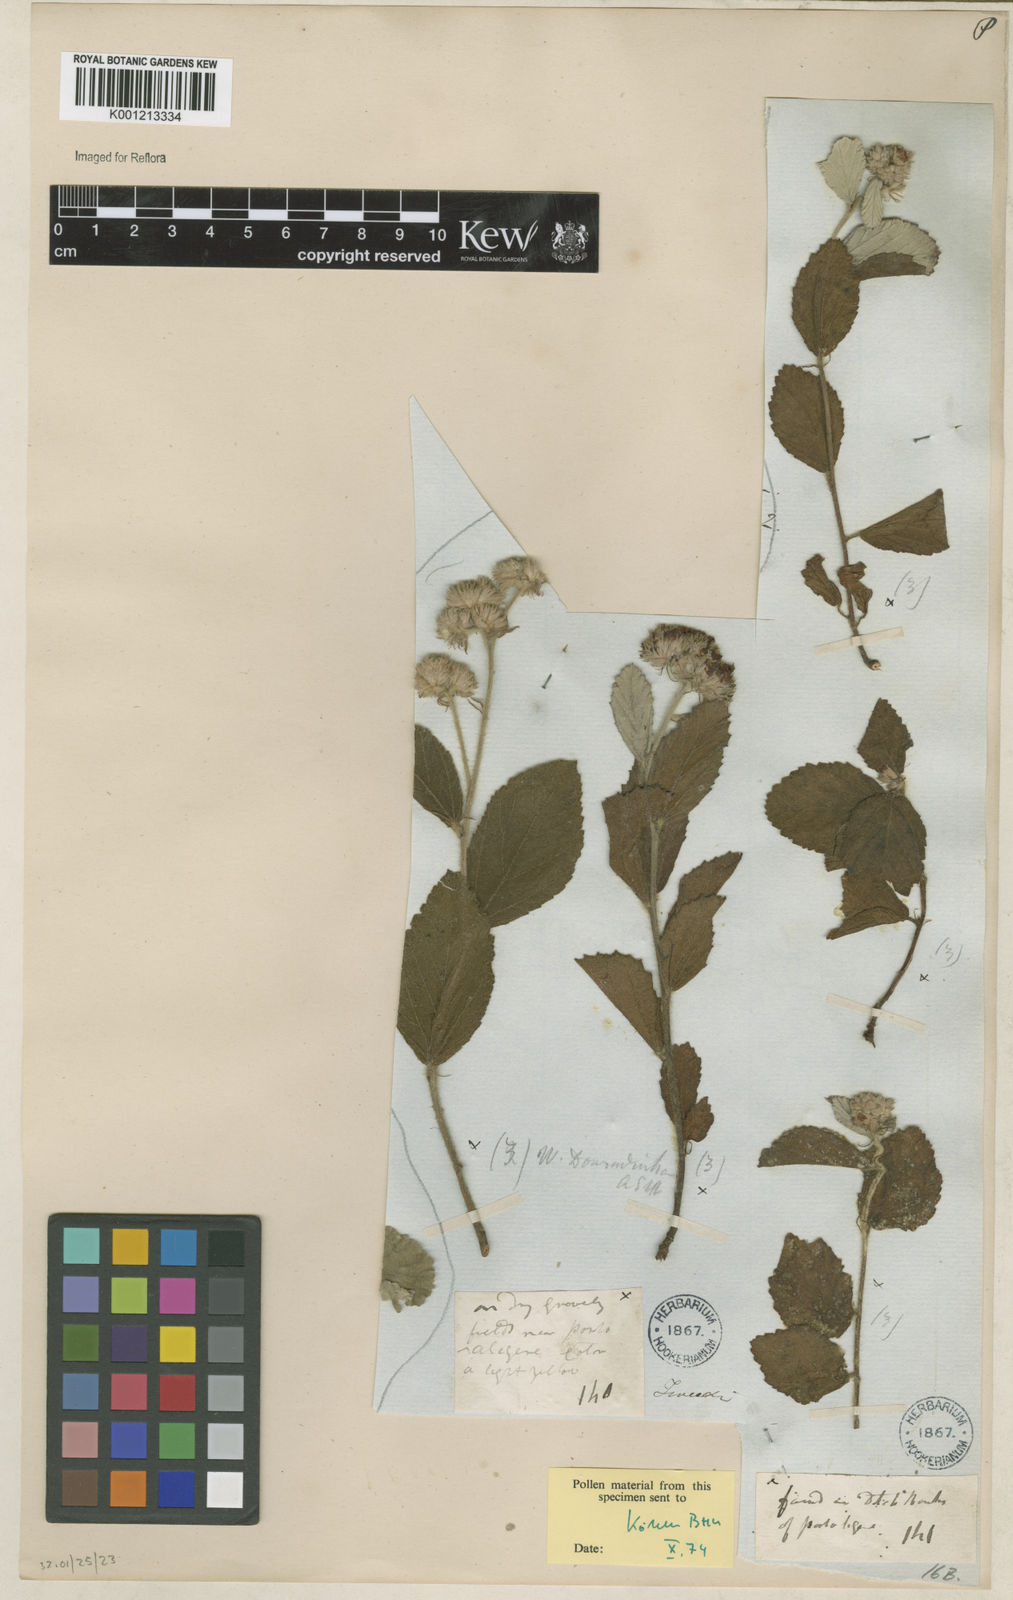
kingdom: Plantae
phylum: Tracheophyta
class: Magnoliopsida
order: Malvales
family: Malvaceae
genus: Waltheria
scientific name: Waltheria communis
